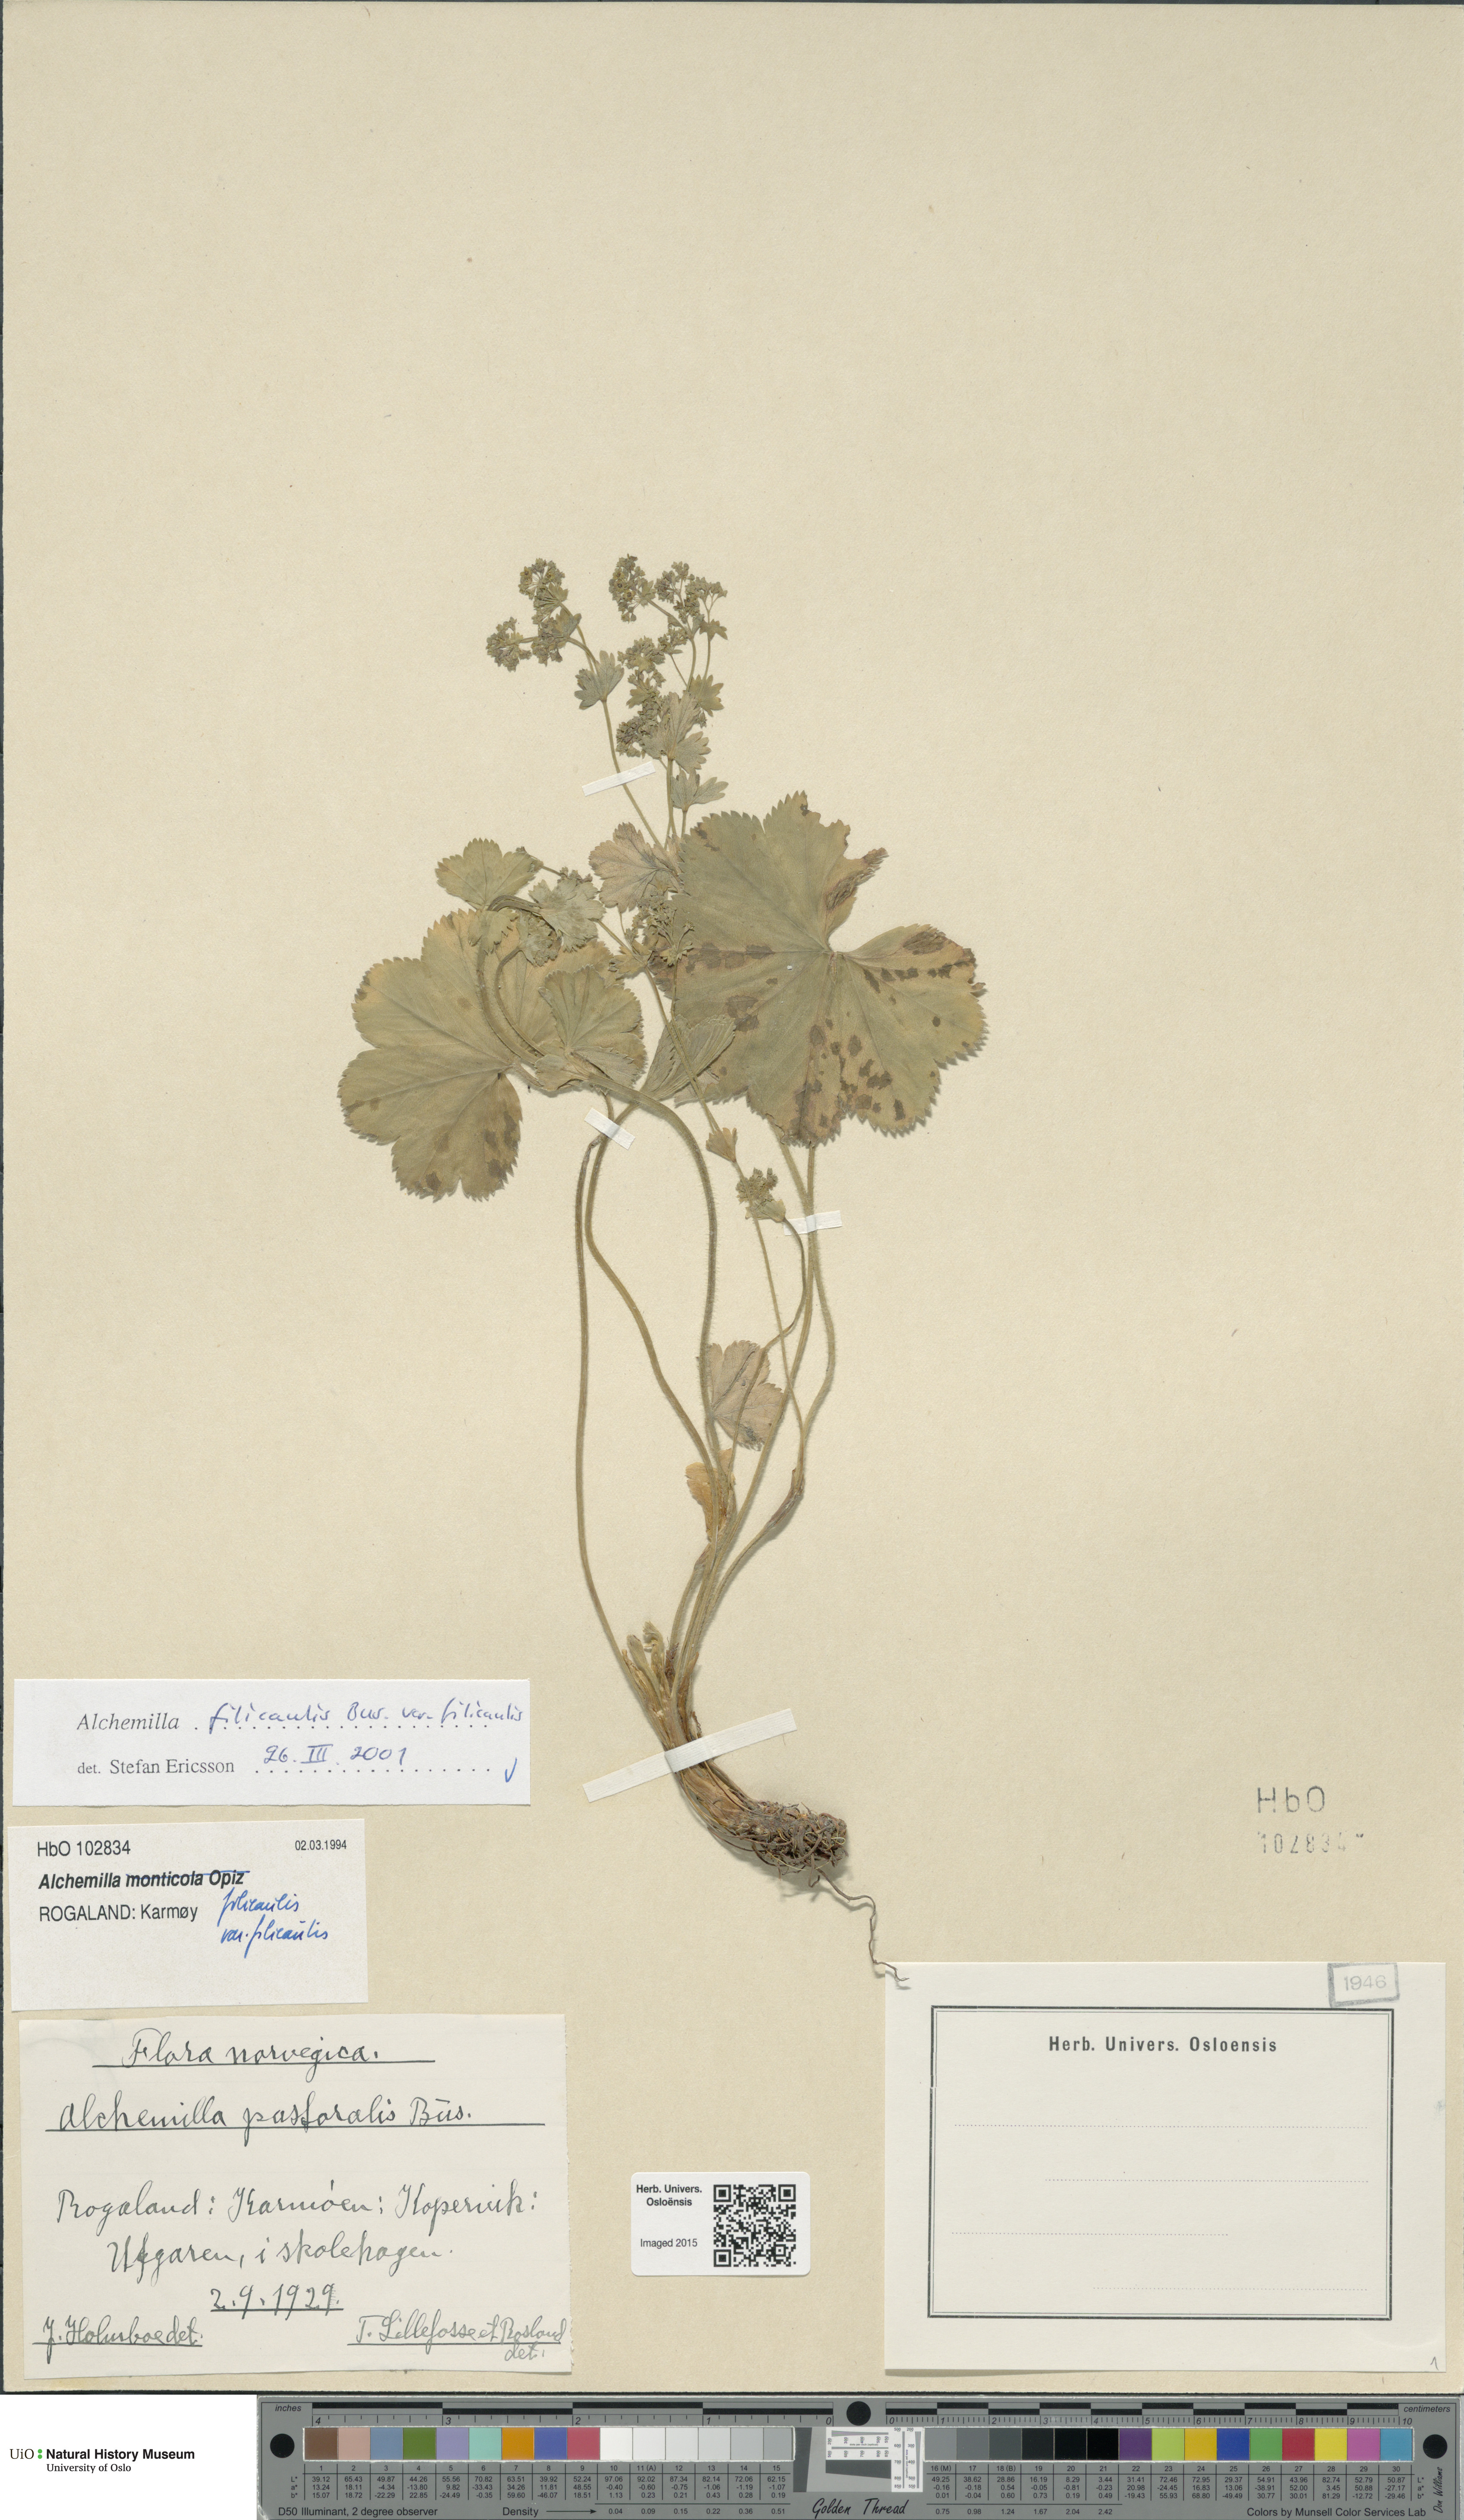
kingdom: Plantae
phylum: Tracheophyta
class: Magnoliopsida
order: Rosales
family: Rosaceae
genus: Alchemilla
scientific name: Alchemilla filicaulis
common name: Hairy lady's-mantle
